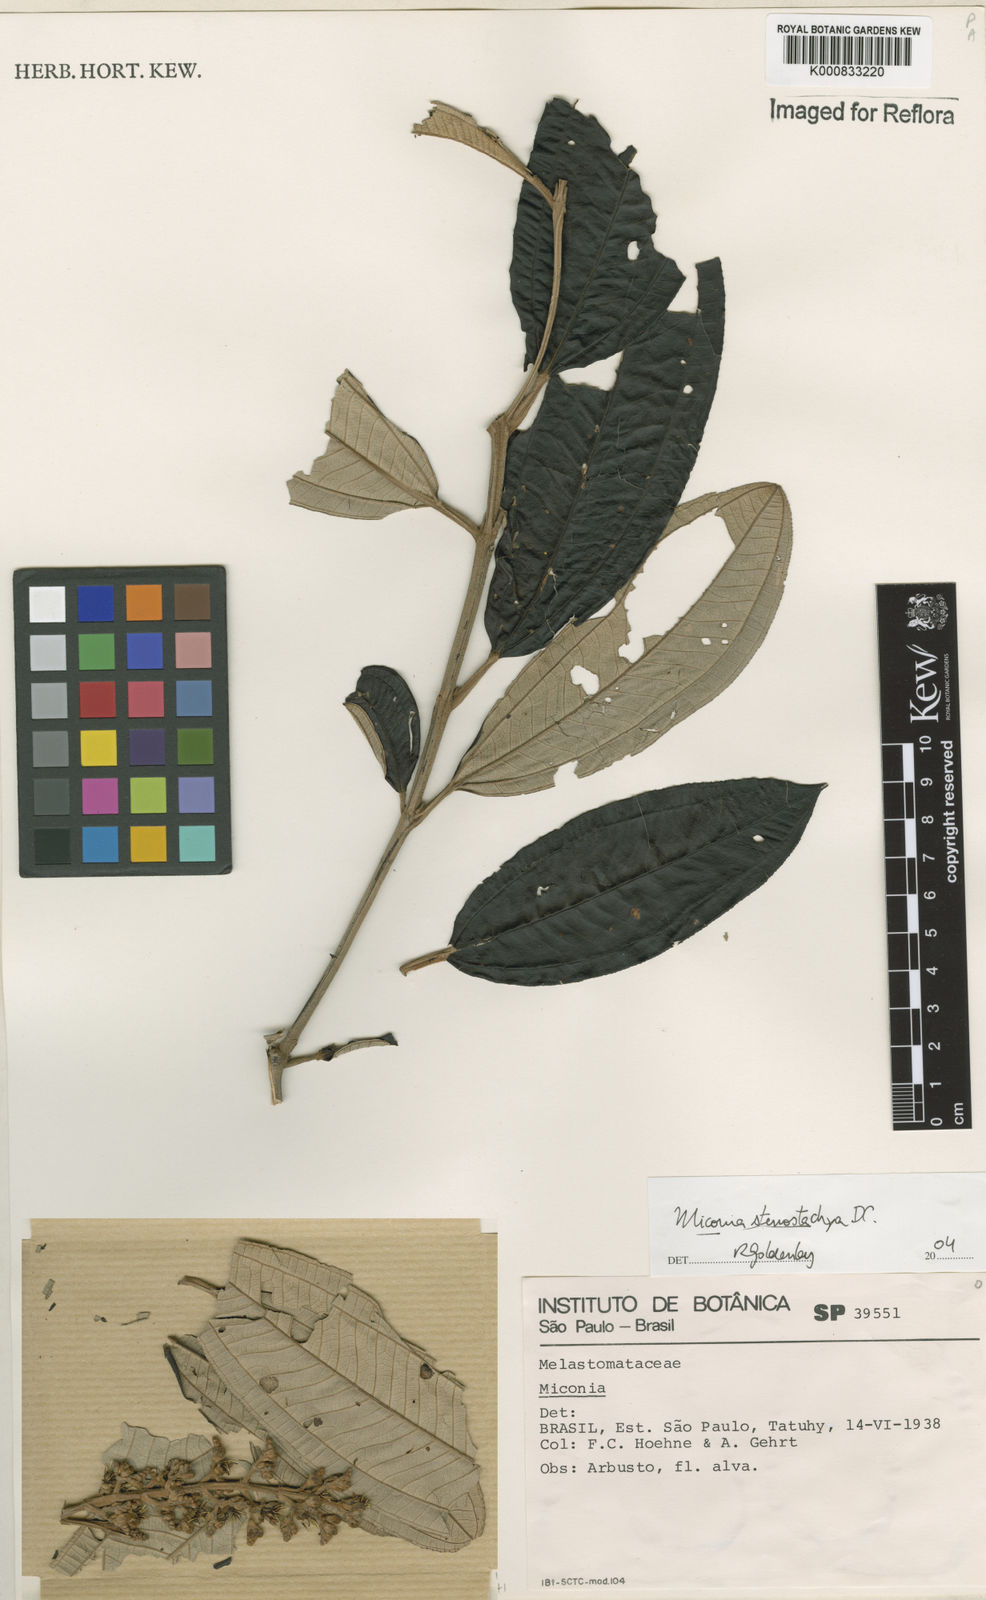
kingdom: Plantae
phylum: Tracheophyta
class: Magnoliopsida
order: Myrtales
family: Melastomataceae
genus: Miconia
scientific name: Miconia stenostachya
